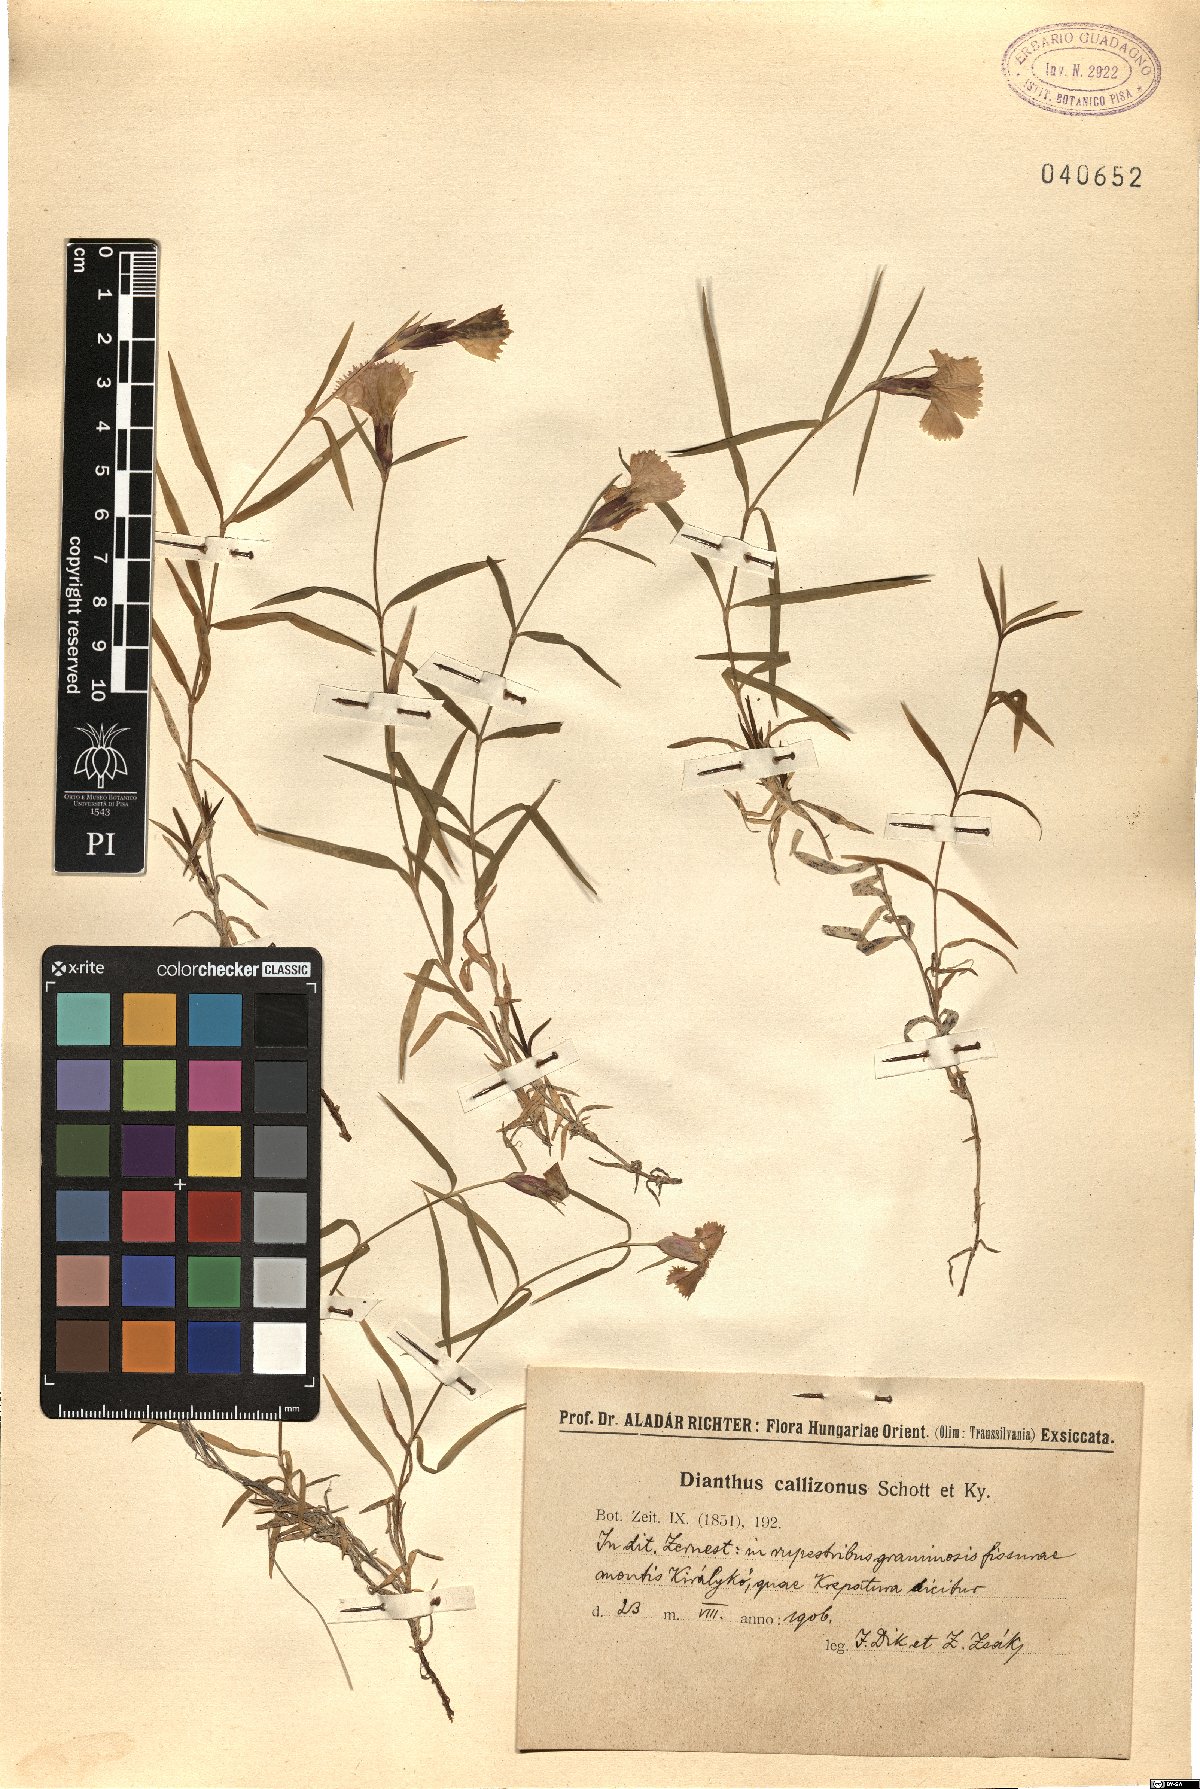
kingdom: Plantae
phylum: Tracheophyta
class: Magnoliopsida
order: Caryophyllales
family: Caryophyllaceae
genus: Dianthus
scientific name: Dianthus callizonus
